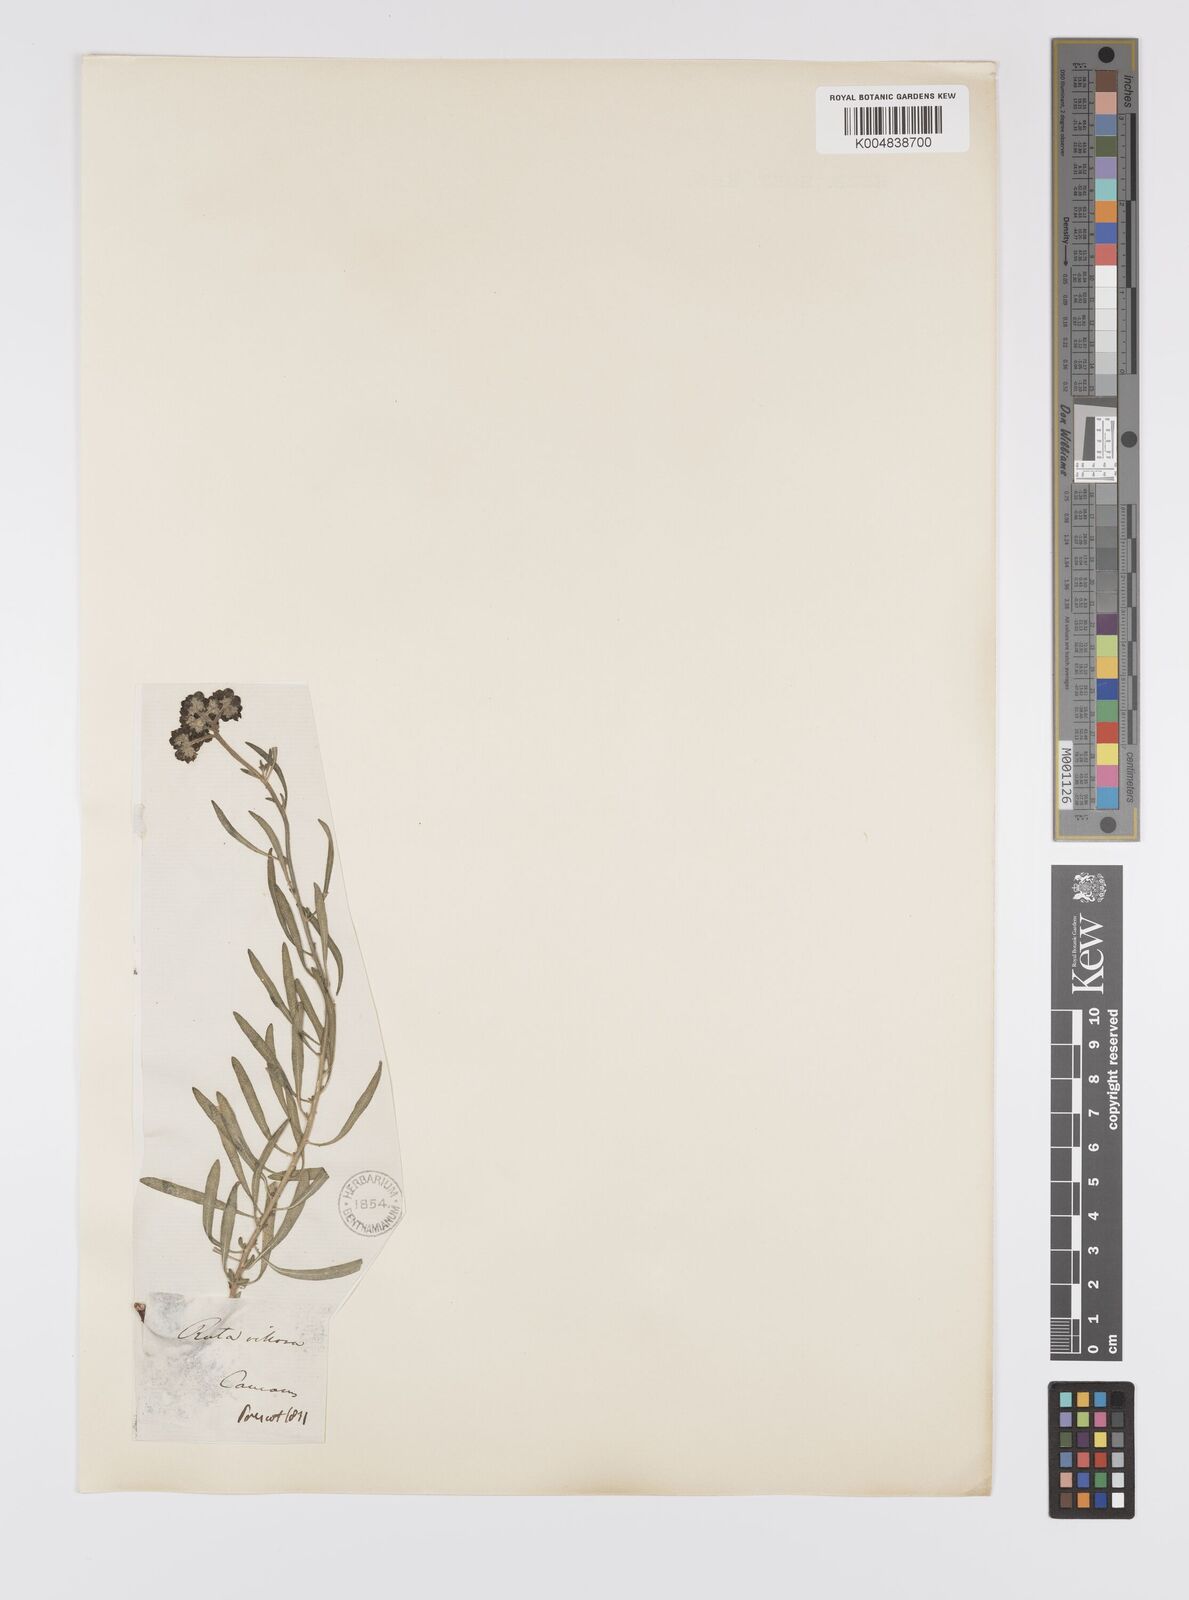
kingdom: Plantae
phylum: Tracheophyta
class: Magnoliopsida
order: Sapindales
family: Rutaceae
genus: Haplophyllum
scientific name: Haplophyllum villosum
